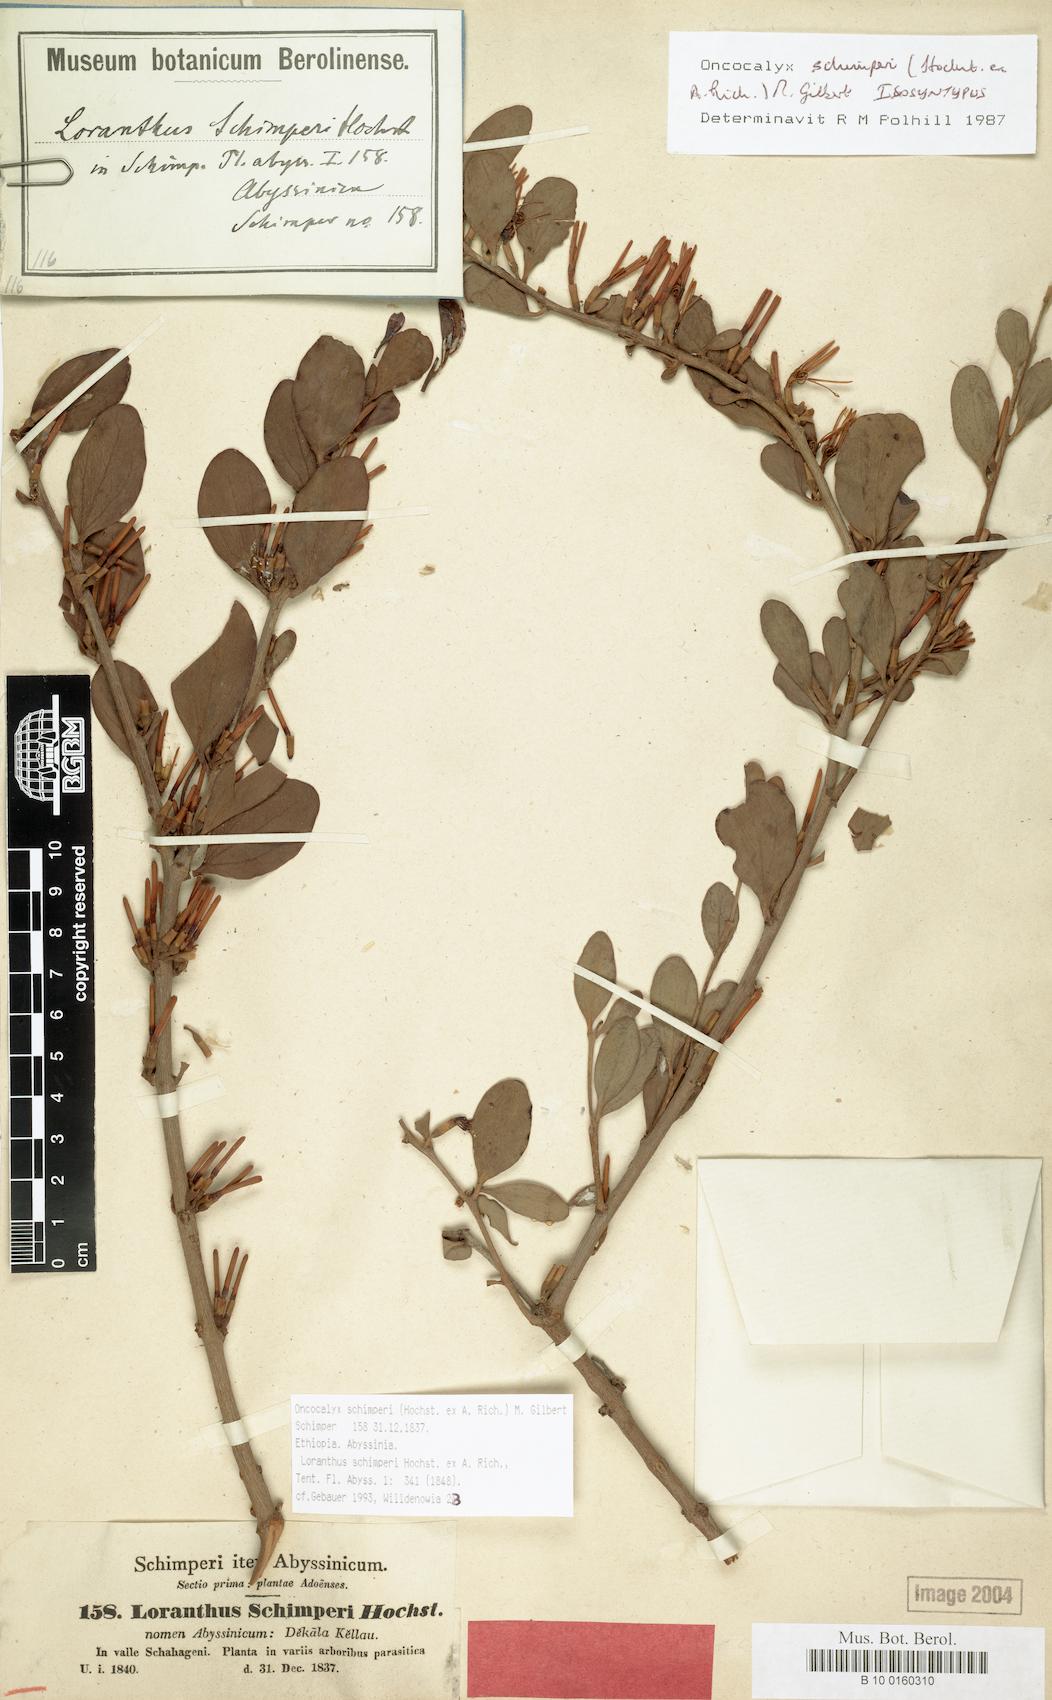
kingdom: Plantae
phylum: Tracheophyta
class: Magnoliopsida
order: Santalales
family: Loranthaceae
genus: Loranthella
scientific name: Loranthella
